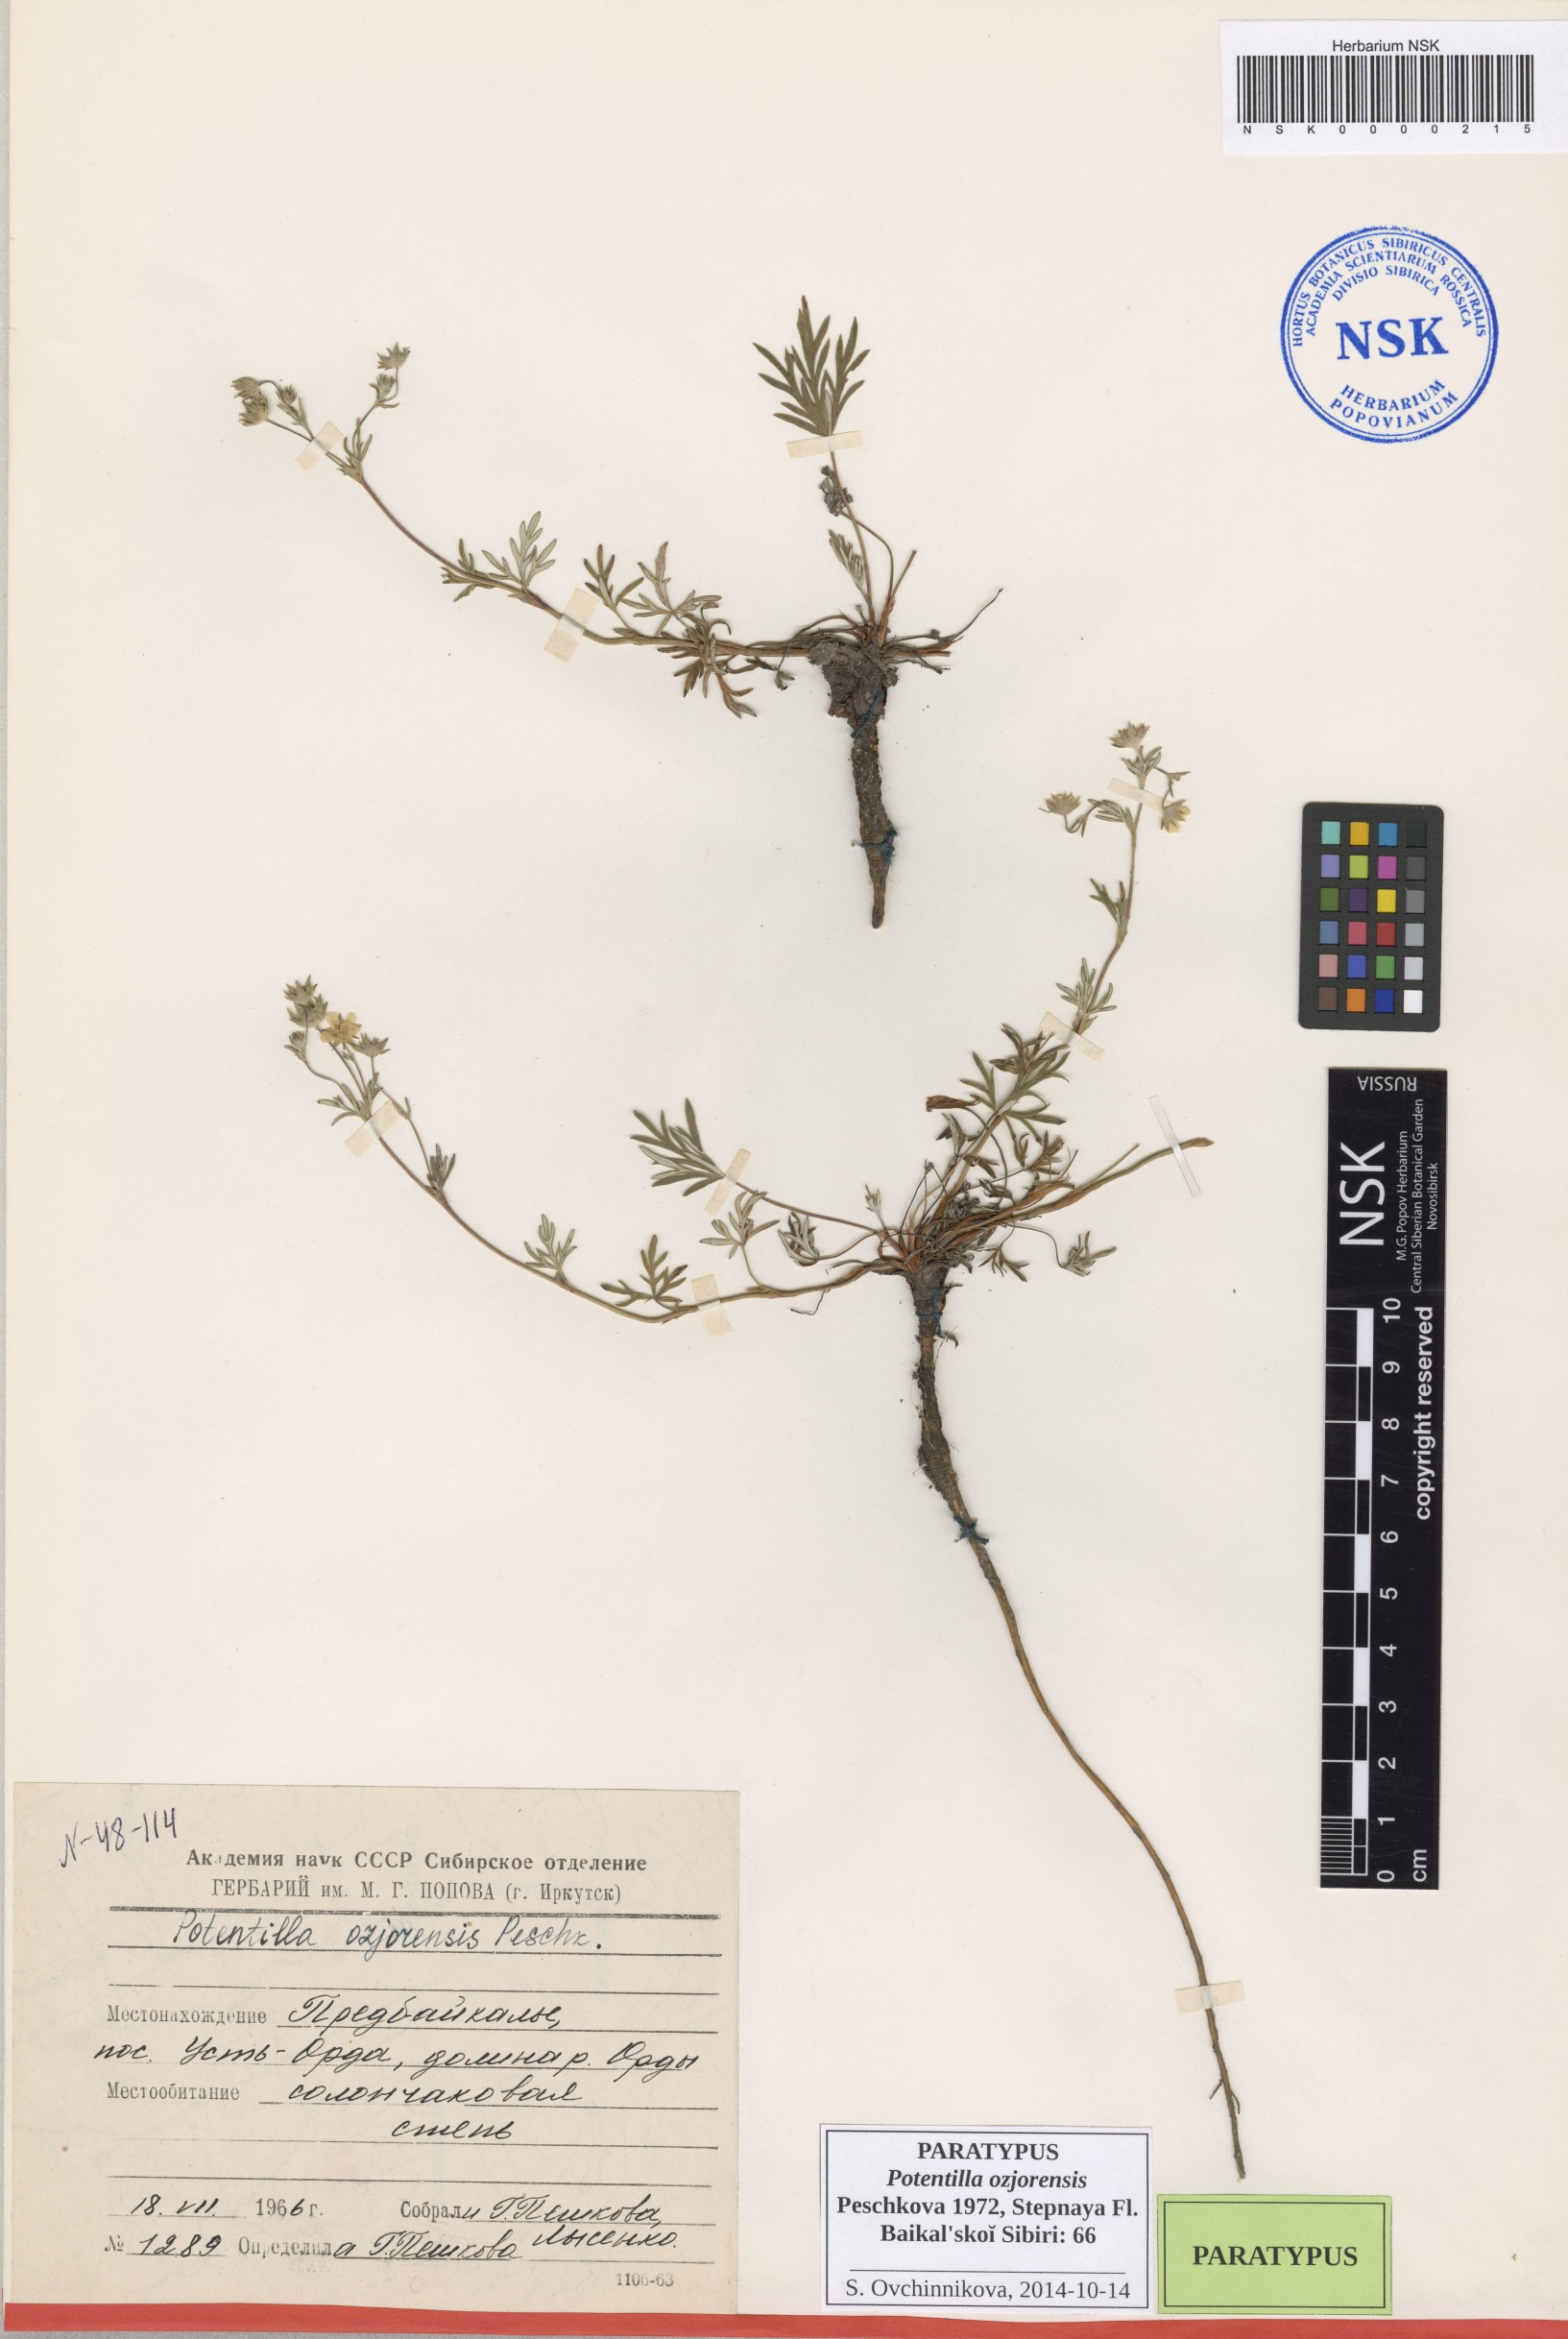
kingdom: Plantae
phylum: Tracheophyta
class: Magnoliopsida
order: Rosales
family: Rosaceae
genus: Potentilla
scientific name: Potentilla ozjorensis
